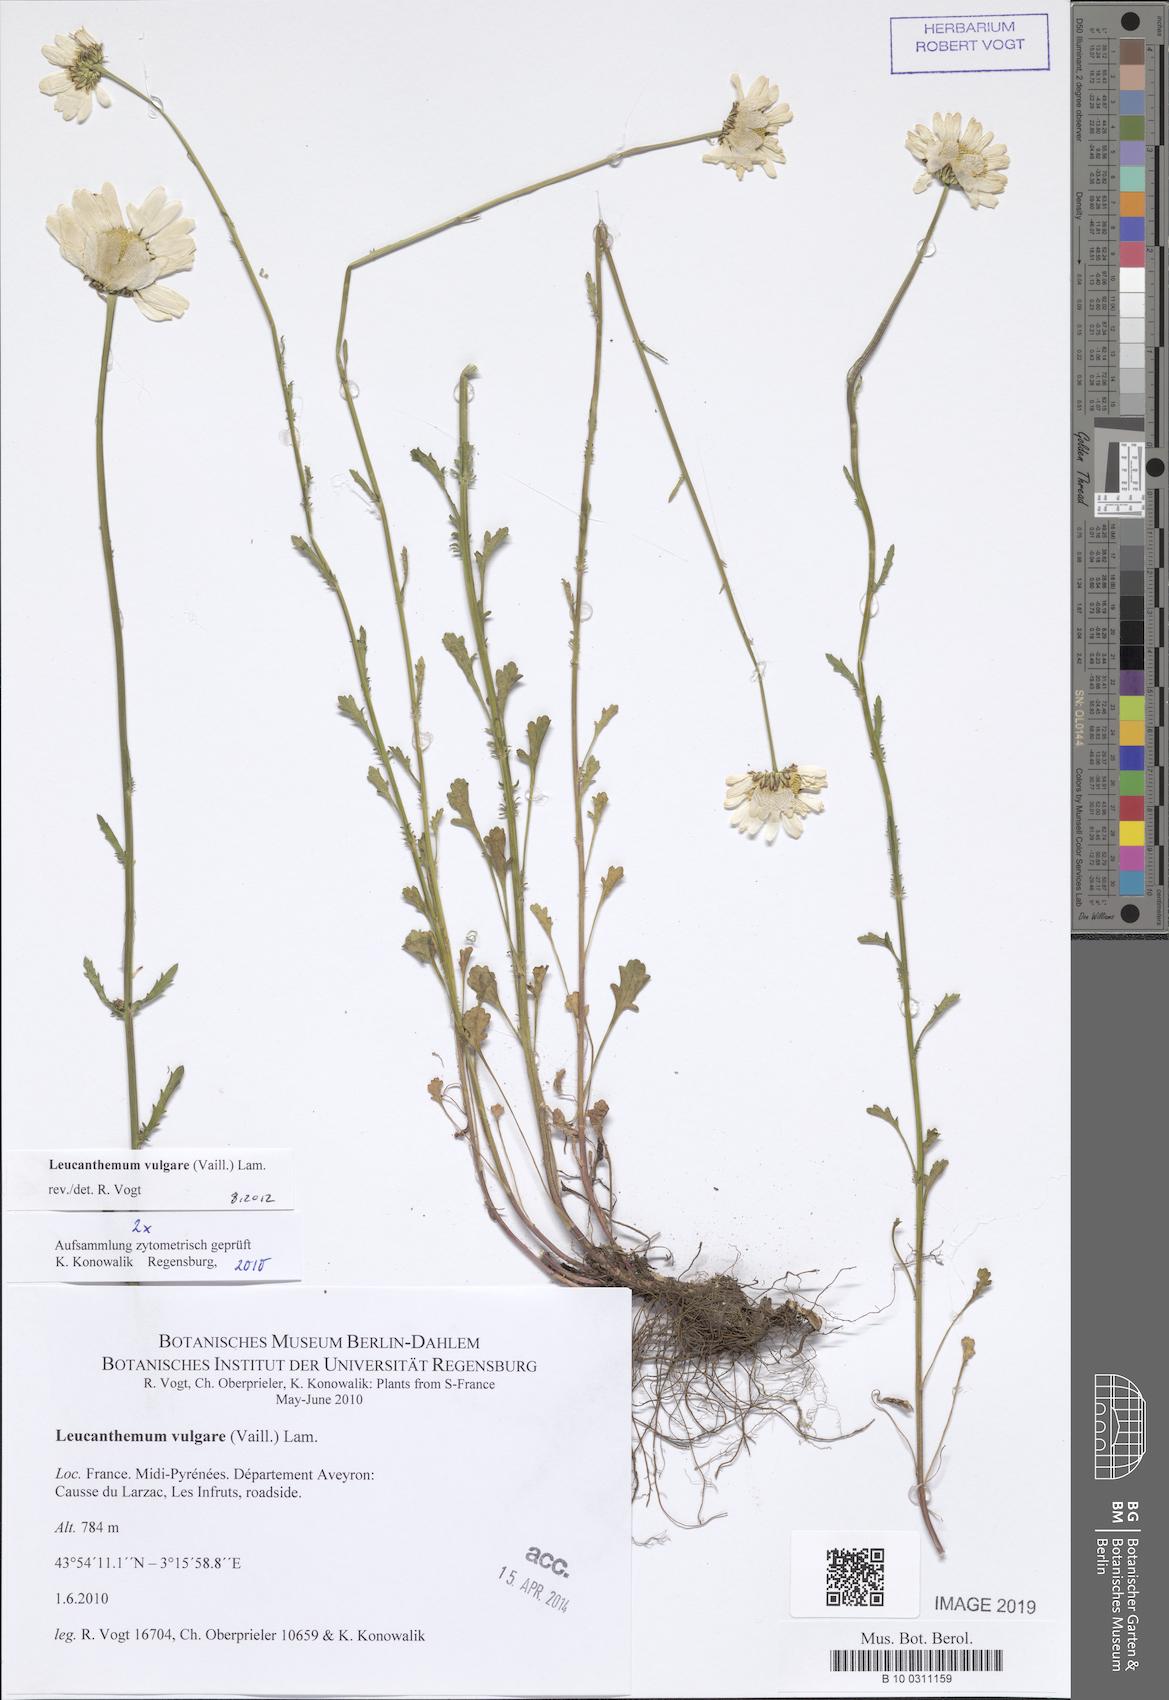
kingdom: Plantae
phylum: Tracheophyta
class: Magnoliopsida
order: Asterales
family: Asteraceae
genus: Leucanthemum
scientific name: Leucanthemum vulgare
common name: Oxeye daisy
